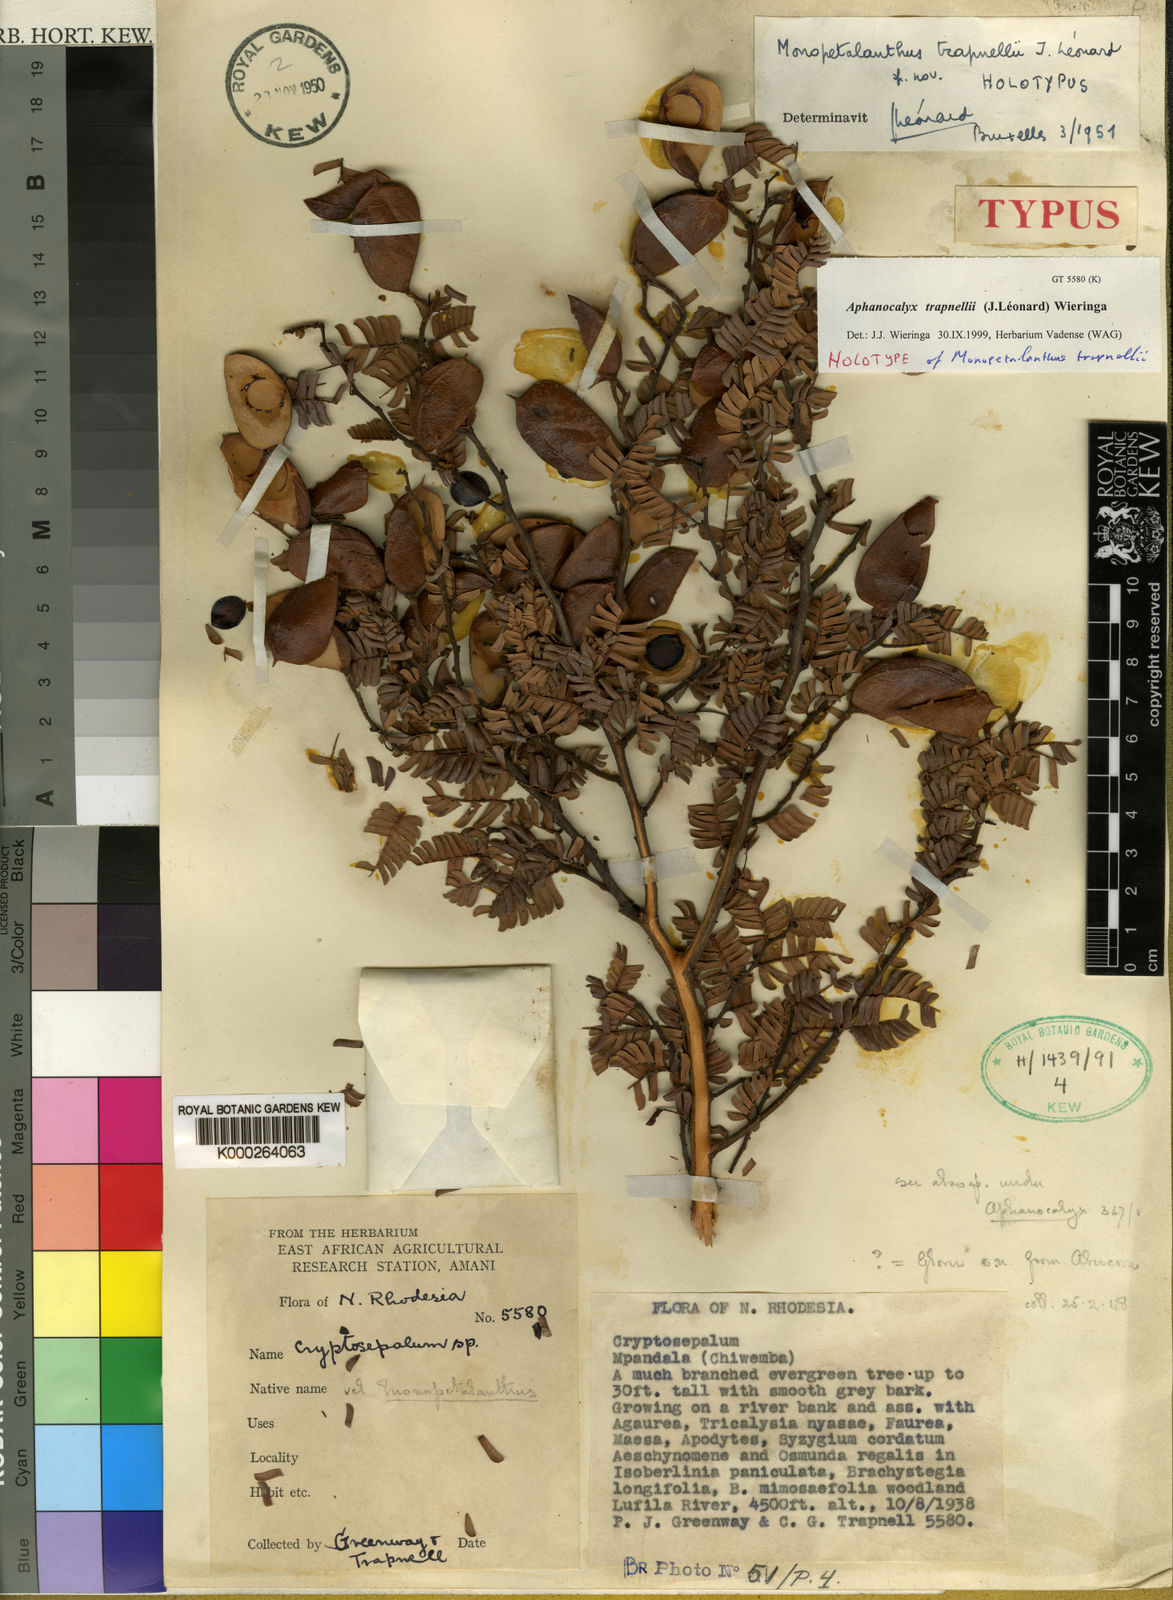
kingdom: Plantae
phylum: Tracheophyta
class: Magnoliopsida
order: Fabales
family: Fabaceae
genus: Aphanocalyx
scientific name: Aphanocalyx
